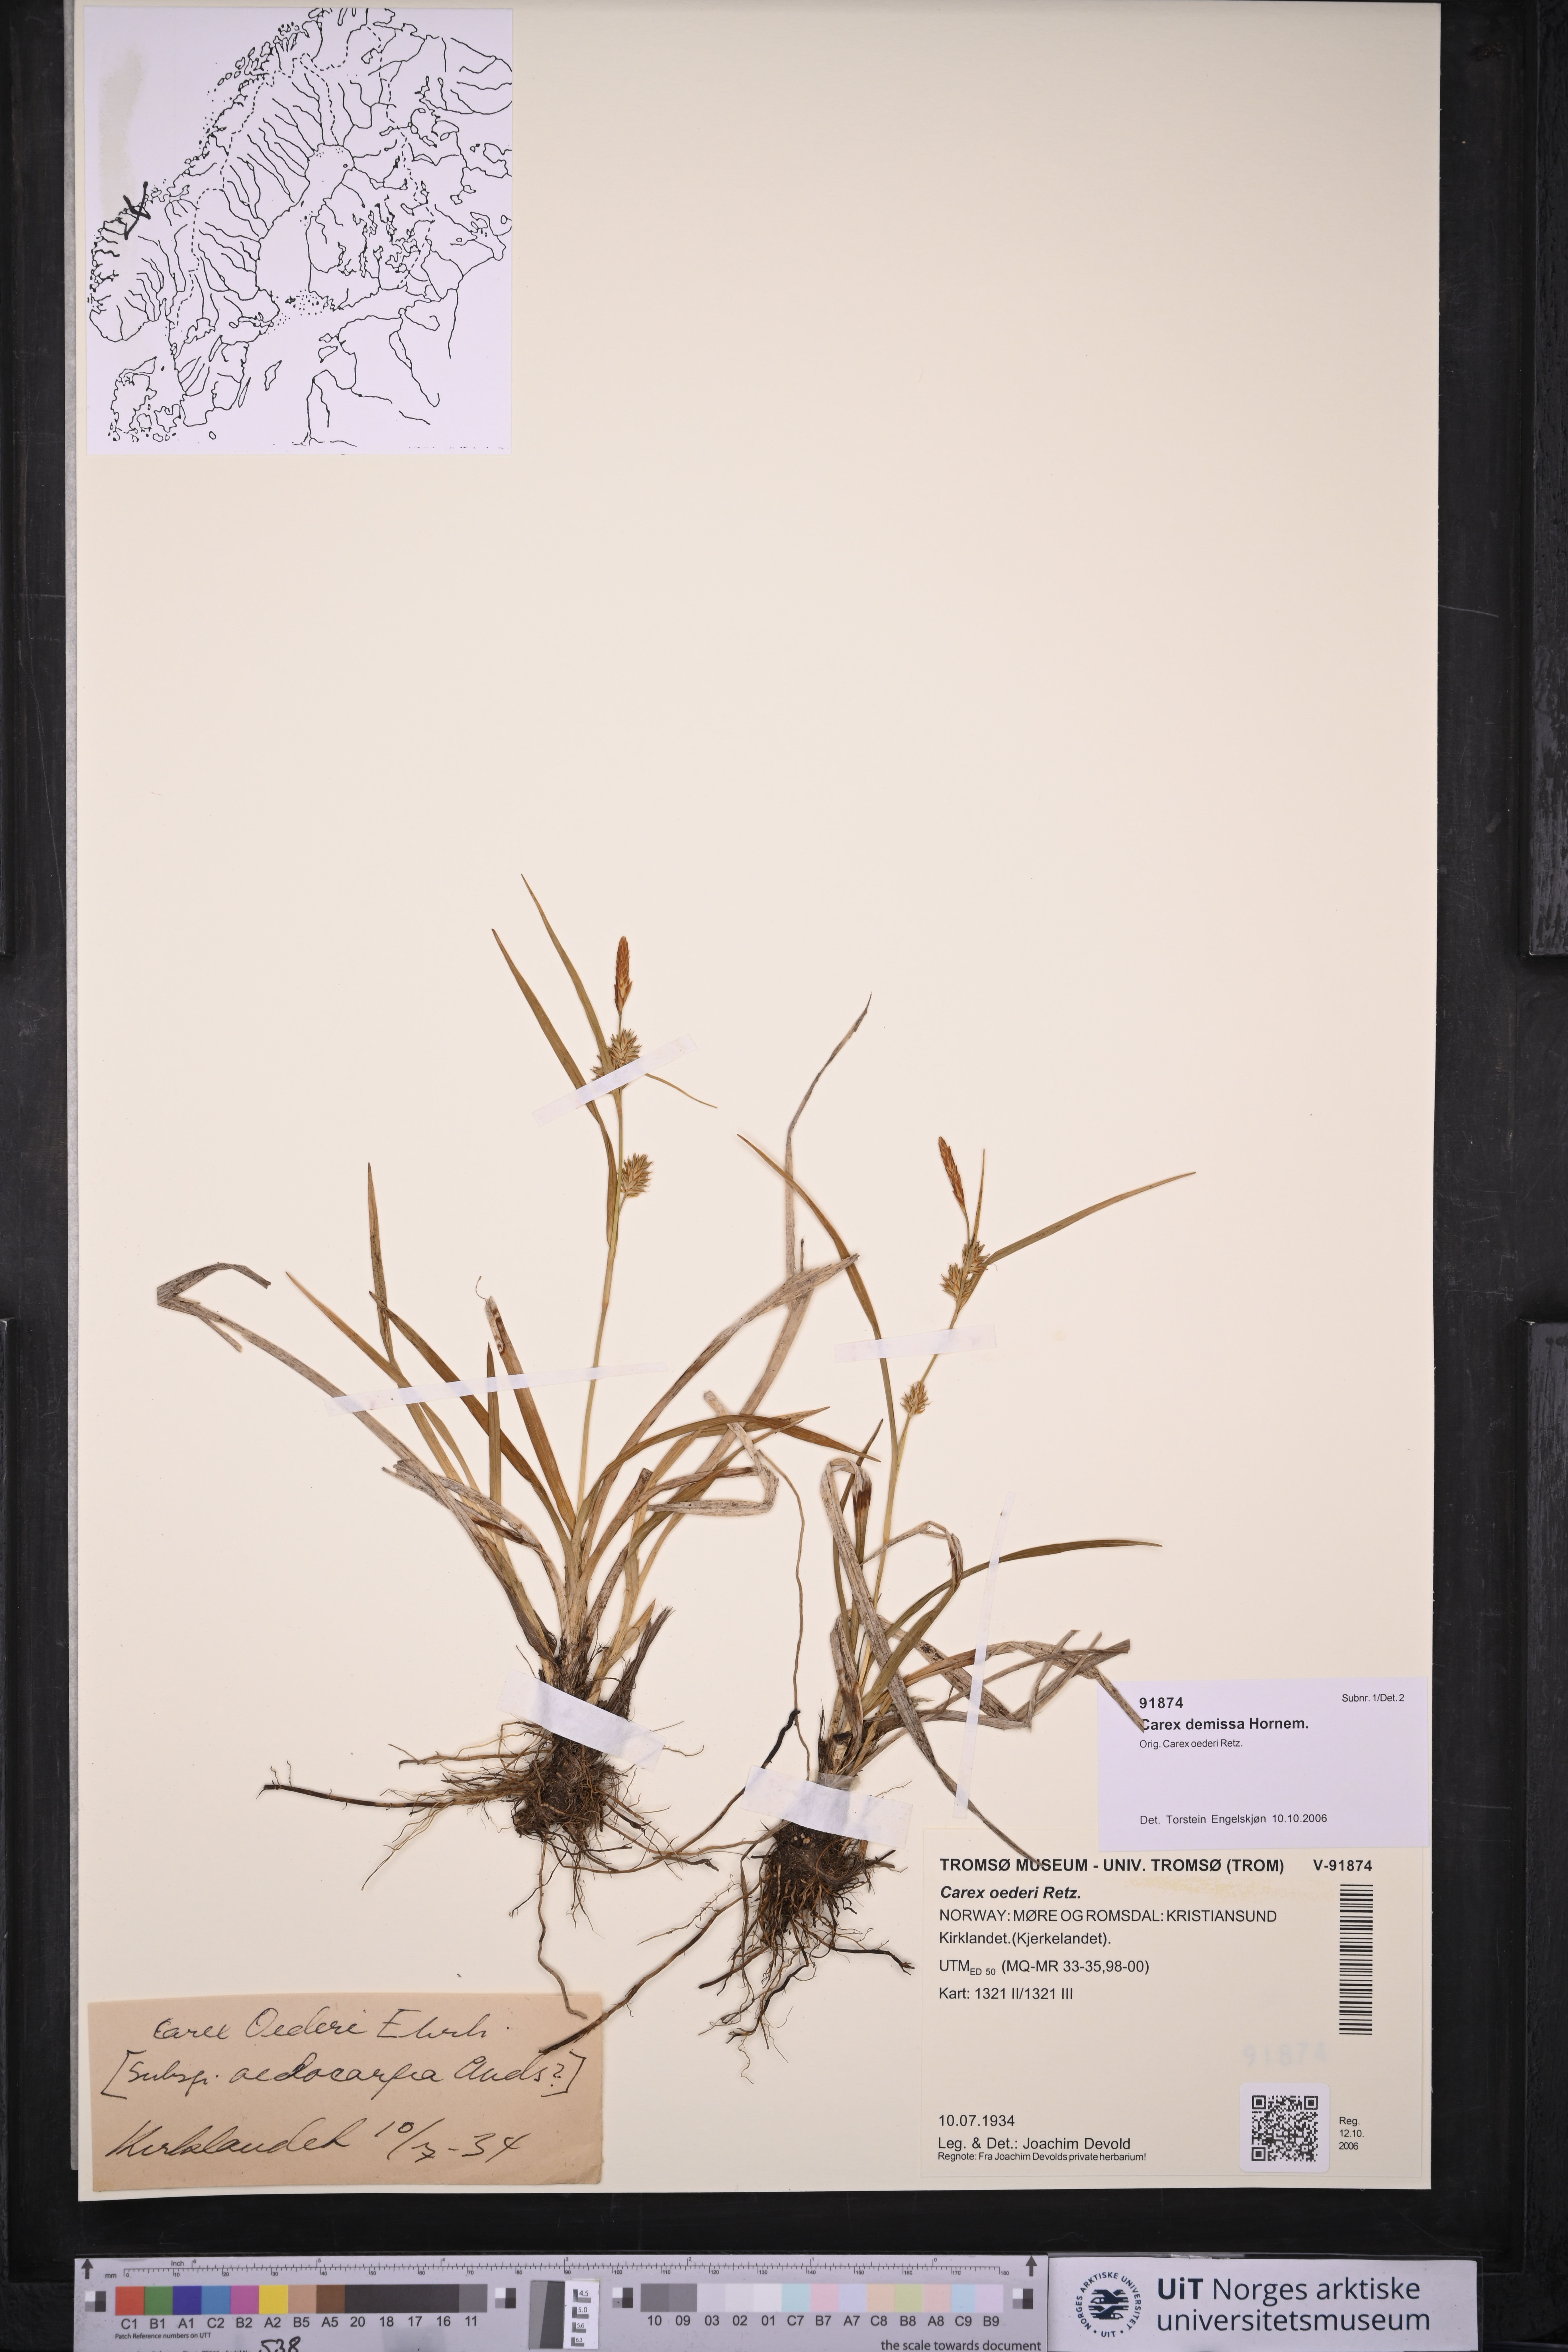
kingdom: Plantae
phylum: Tracheophyta
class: Liliopsida
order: Poales
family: Cyperaceae
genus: Carex
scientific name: Carex demissa
